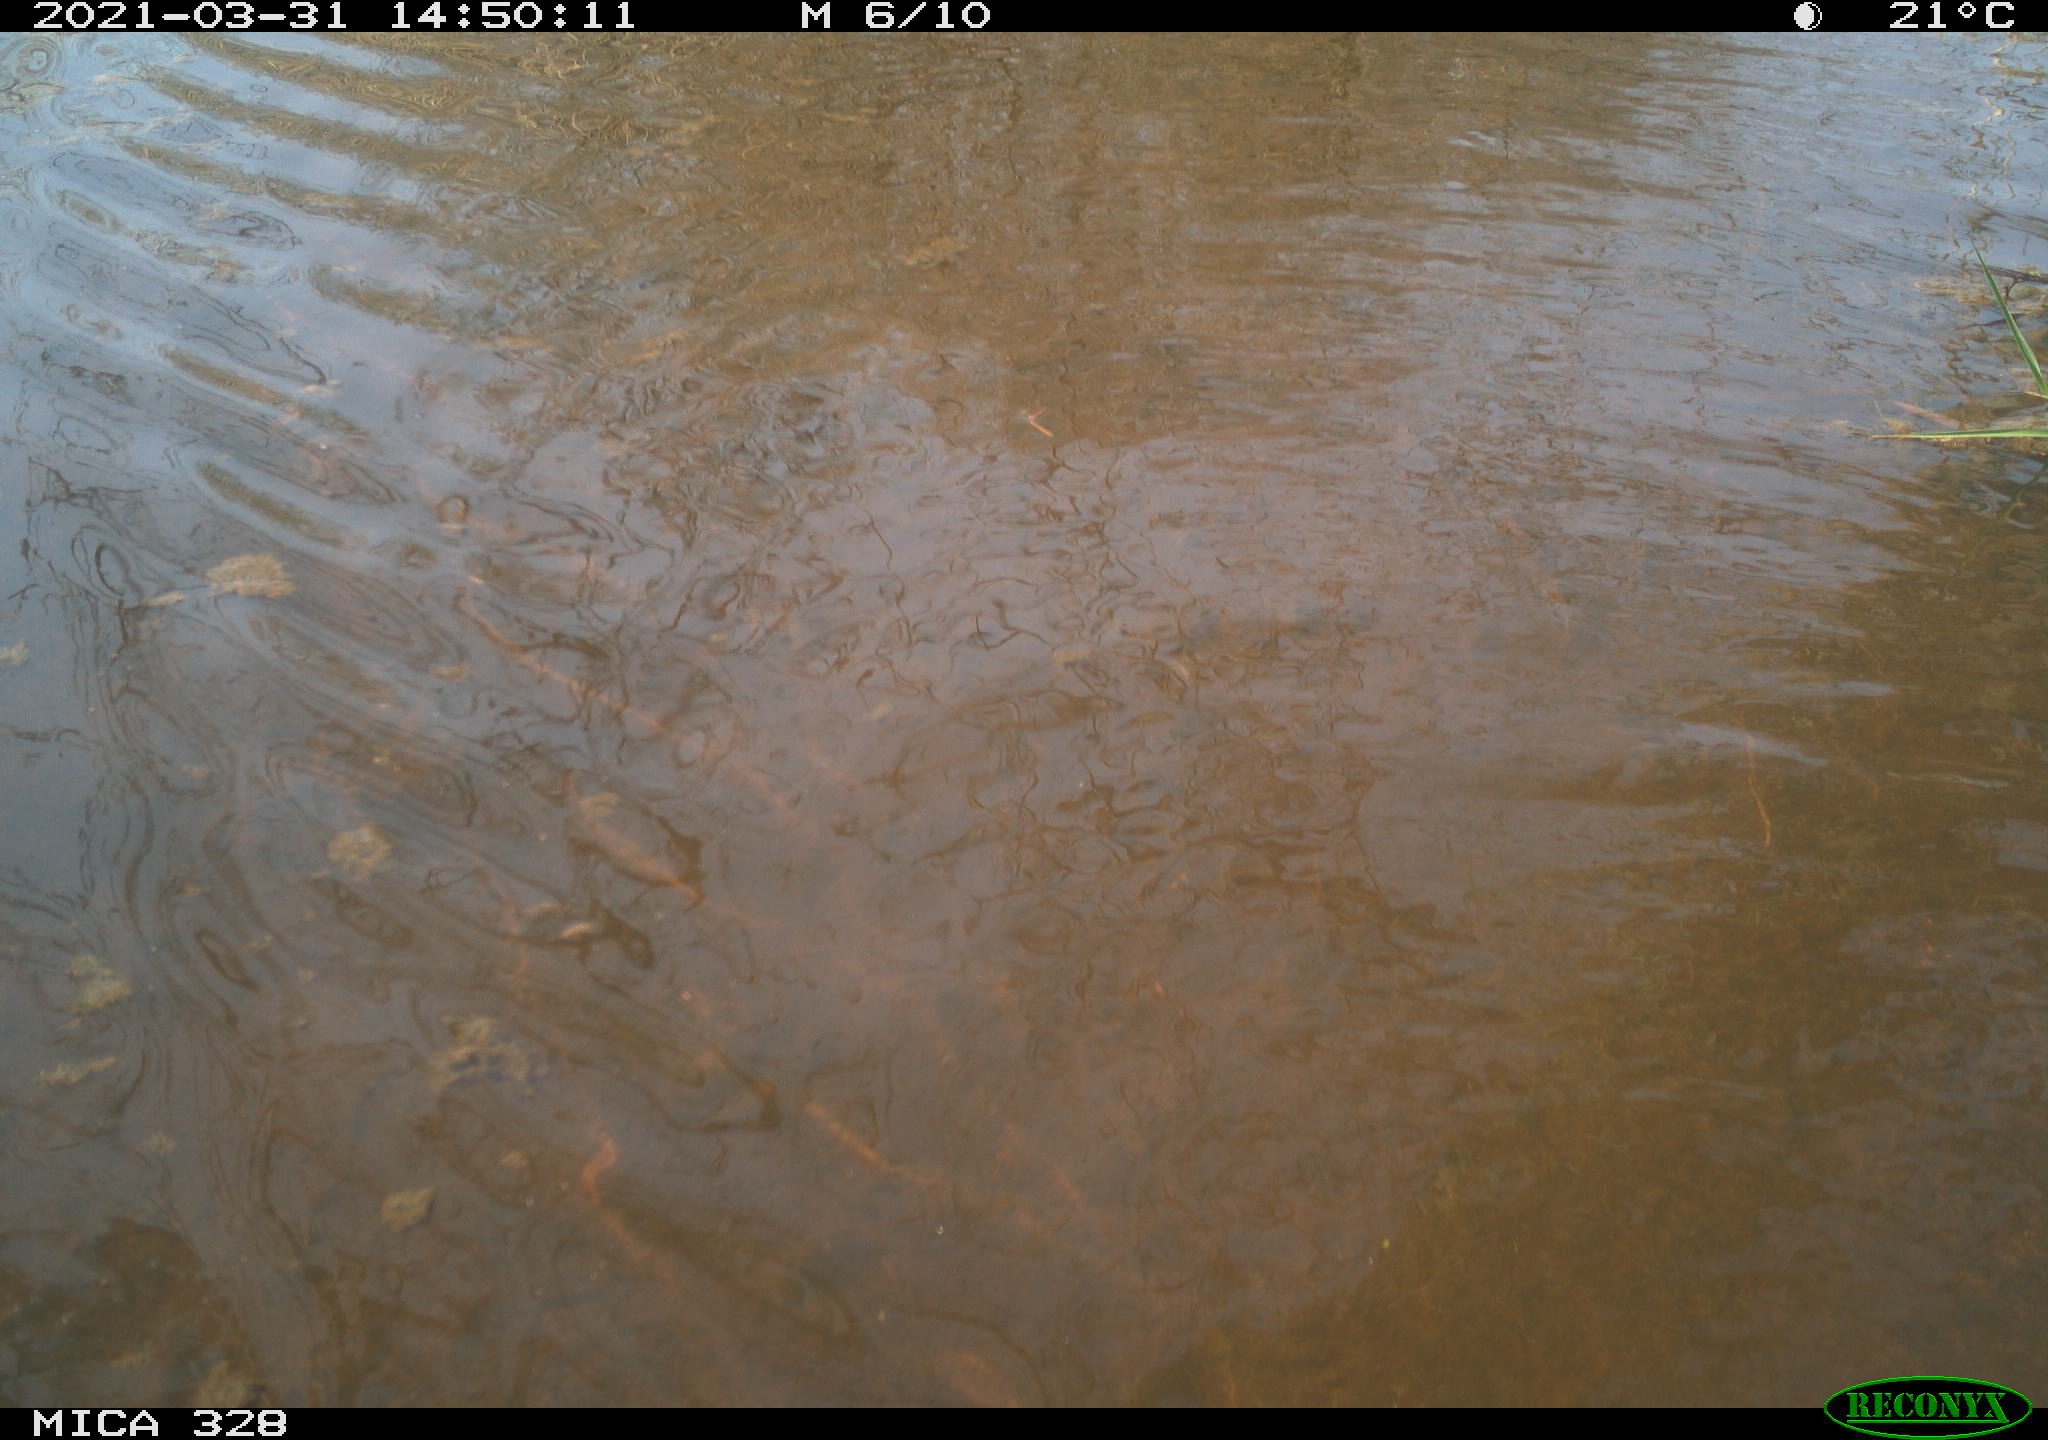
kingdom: Animalia
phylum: Chordata
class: Mammalia
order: Rodentia
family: Cricetidae
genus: Ondatra
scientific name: Ondatra zibethicus
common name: Muskrat
